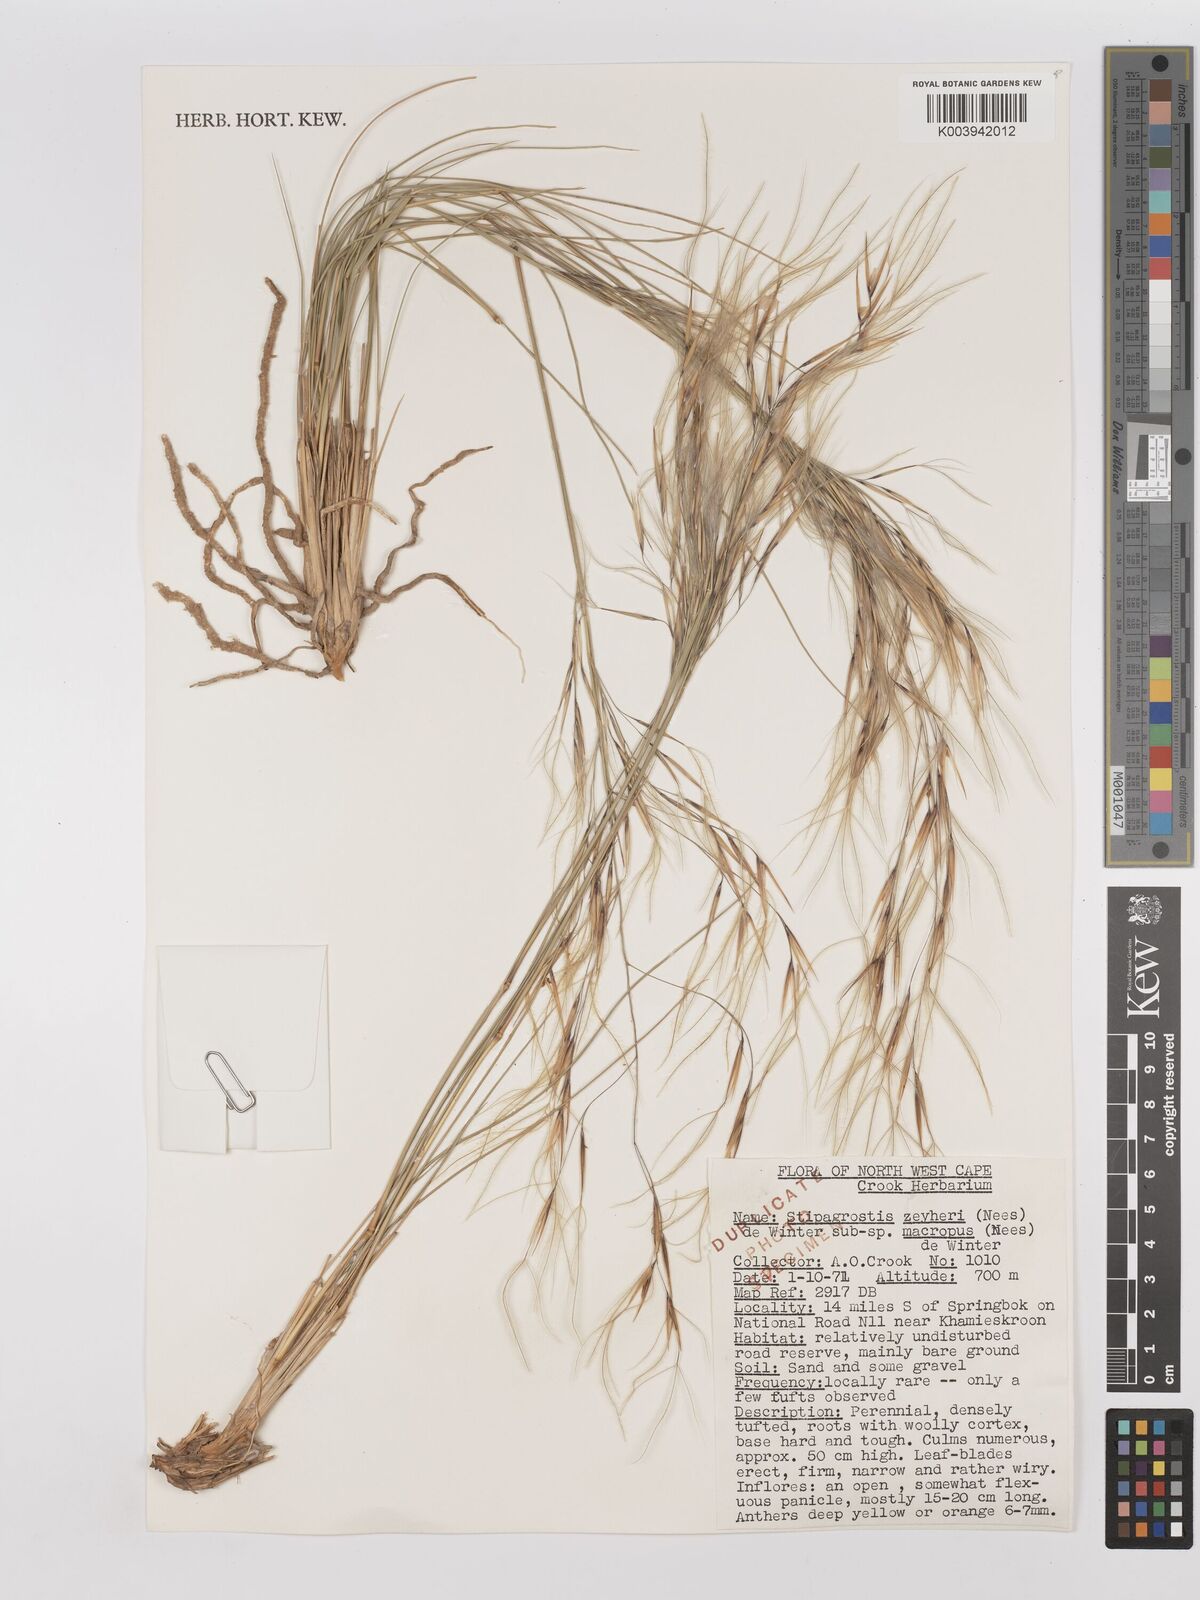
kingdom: Plantae
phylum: Tracheophyta
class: Liliopsida
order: Poales
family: Poaceae
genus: Stipagrostis
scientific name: Stipagrostis zeyheri
